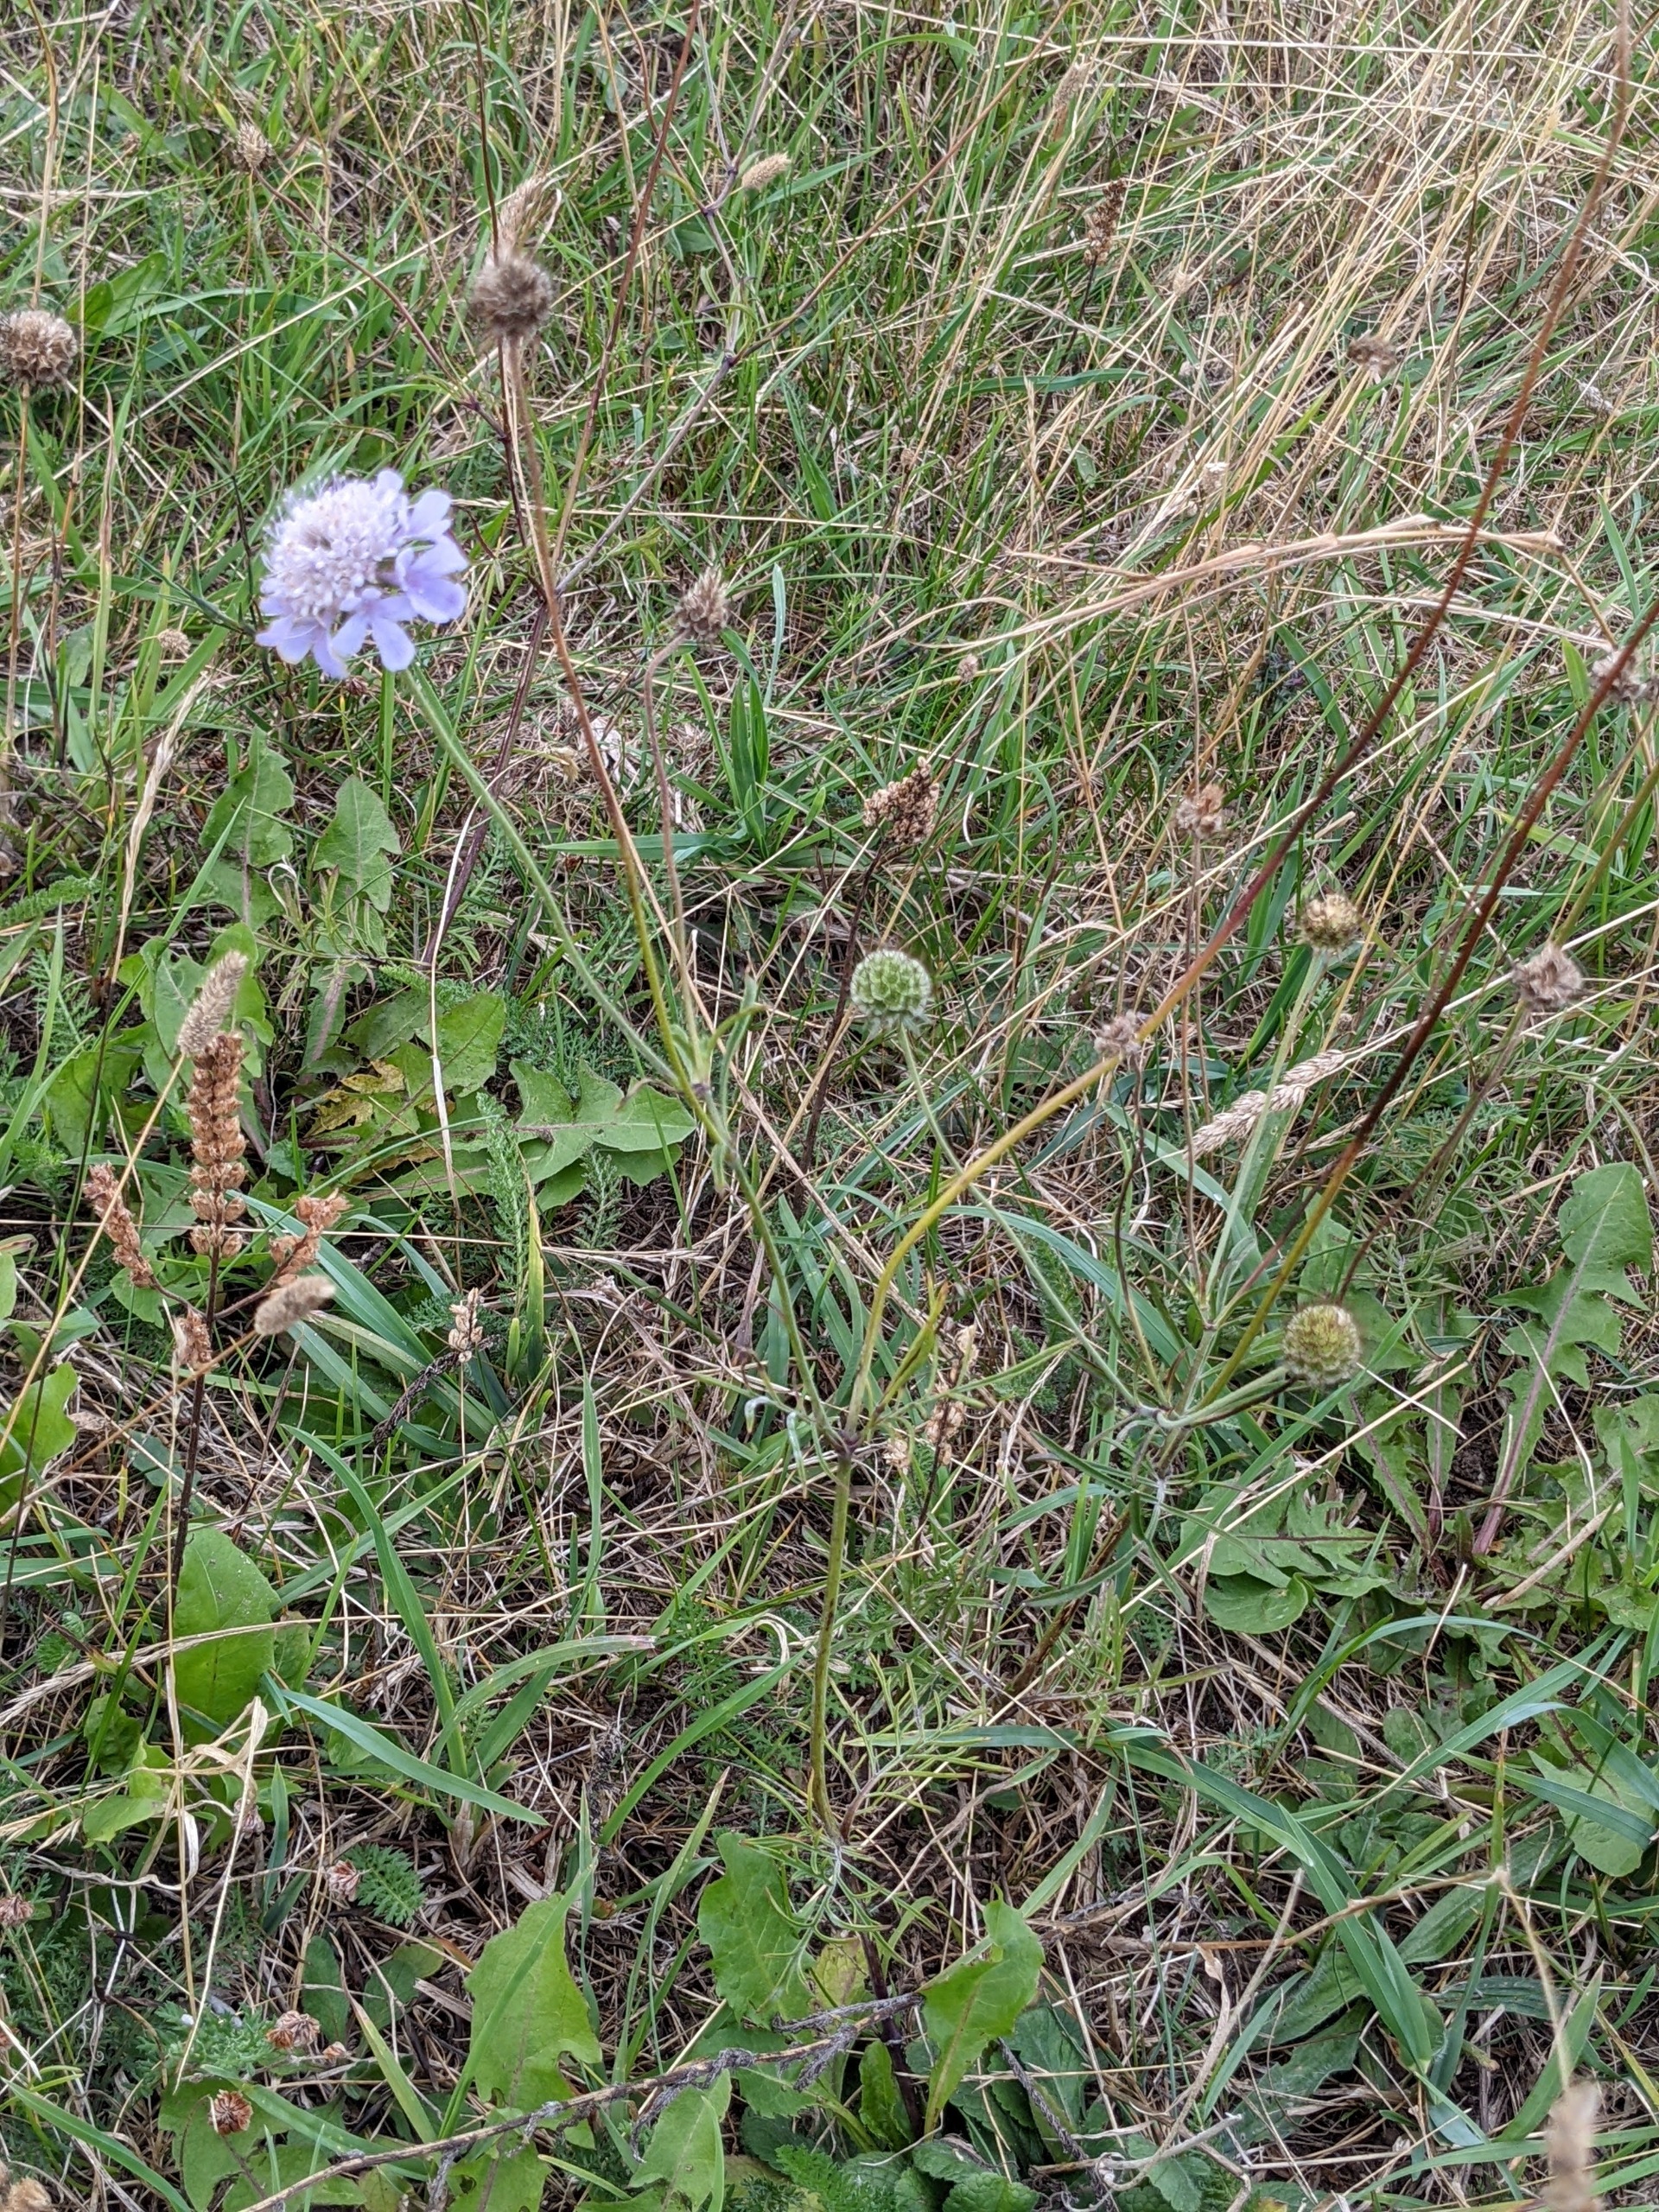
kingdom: Plantae
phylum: Tracheophyta
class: Magnoliopsida
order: Dipsacales
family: Caprifoliaceae
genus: Scabiosa
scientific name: Scabiosa columbaria
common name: Due-skabiose
